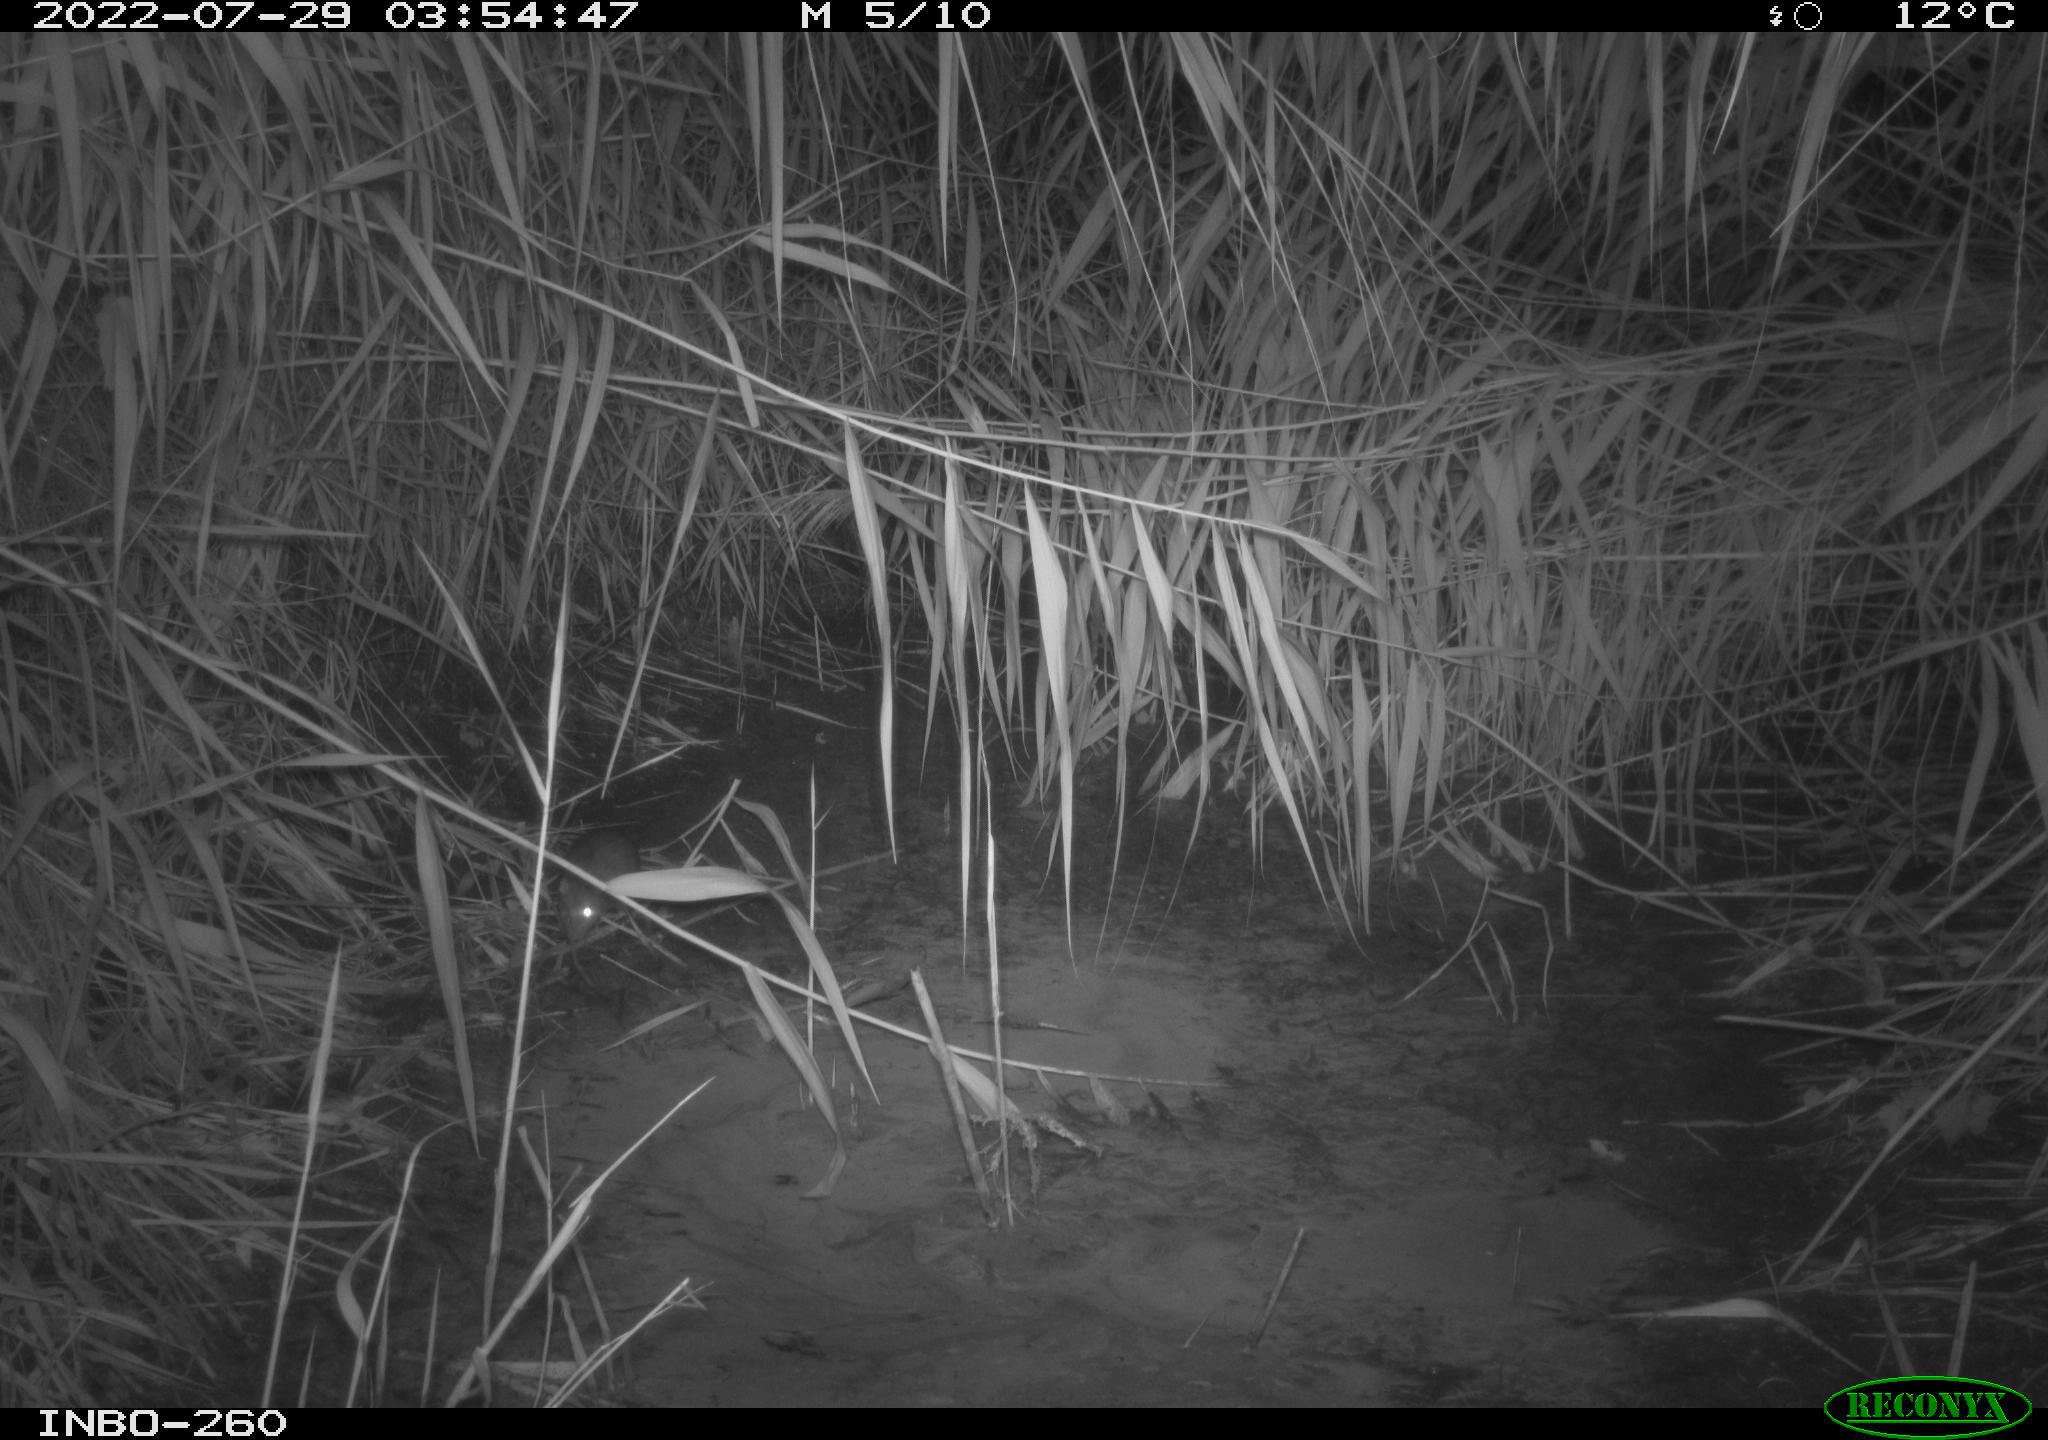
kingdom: Animalia
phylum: Chordata
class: Mammalia
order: Rodentia
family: Muridae
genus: Rattus
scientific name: Rattus norvegicus
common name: Brown rat
